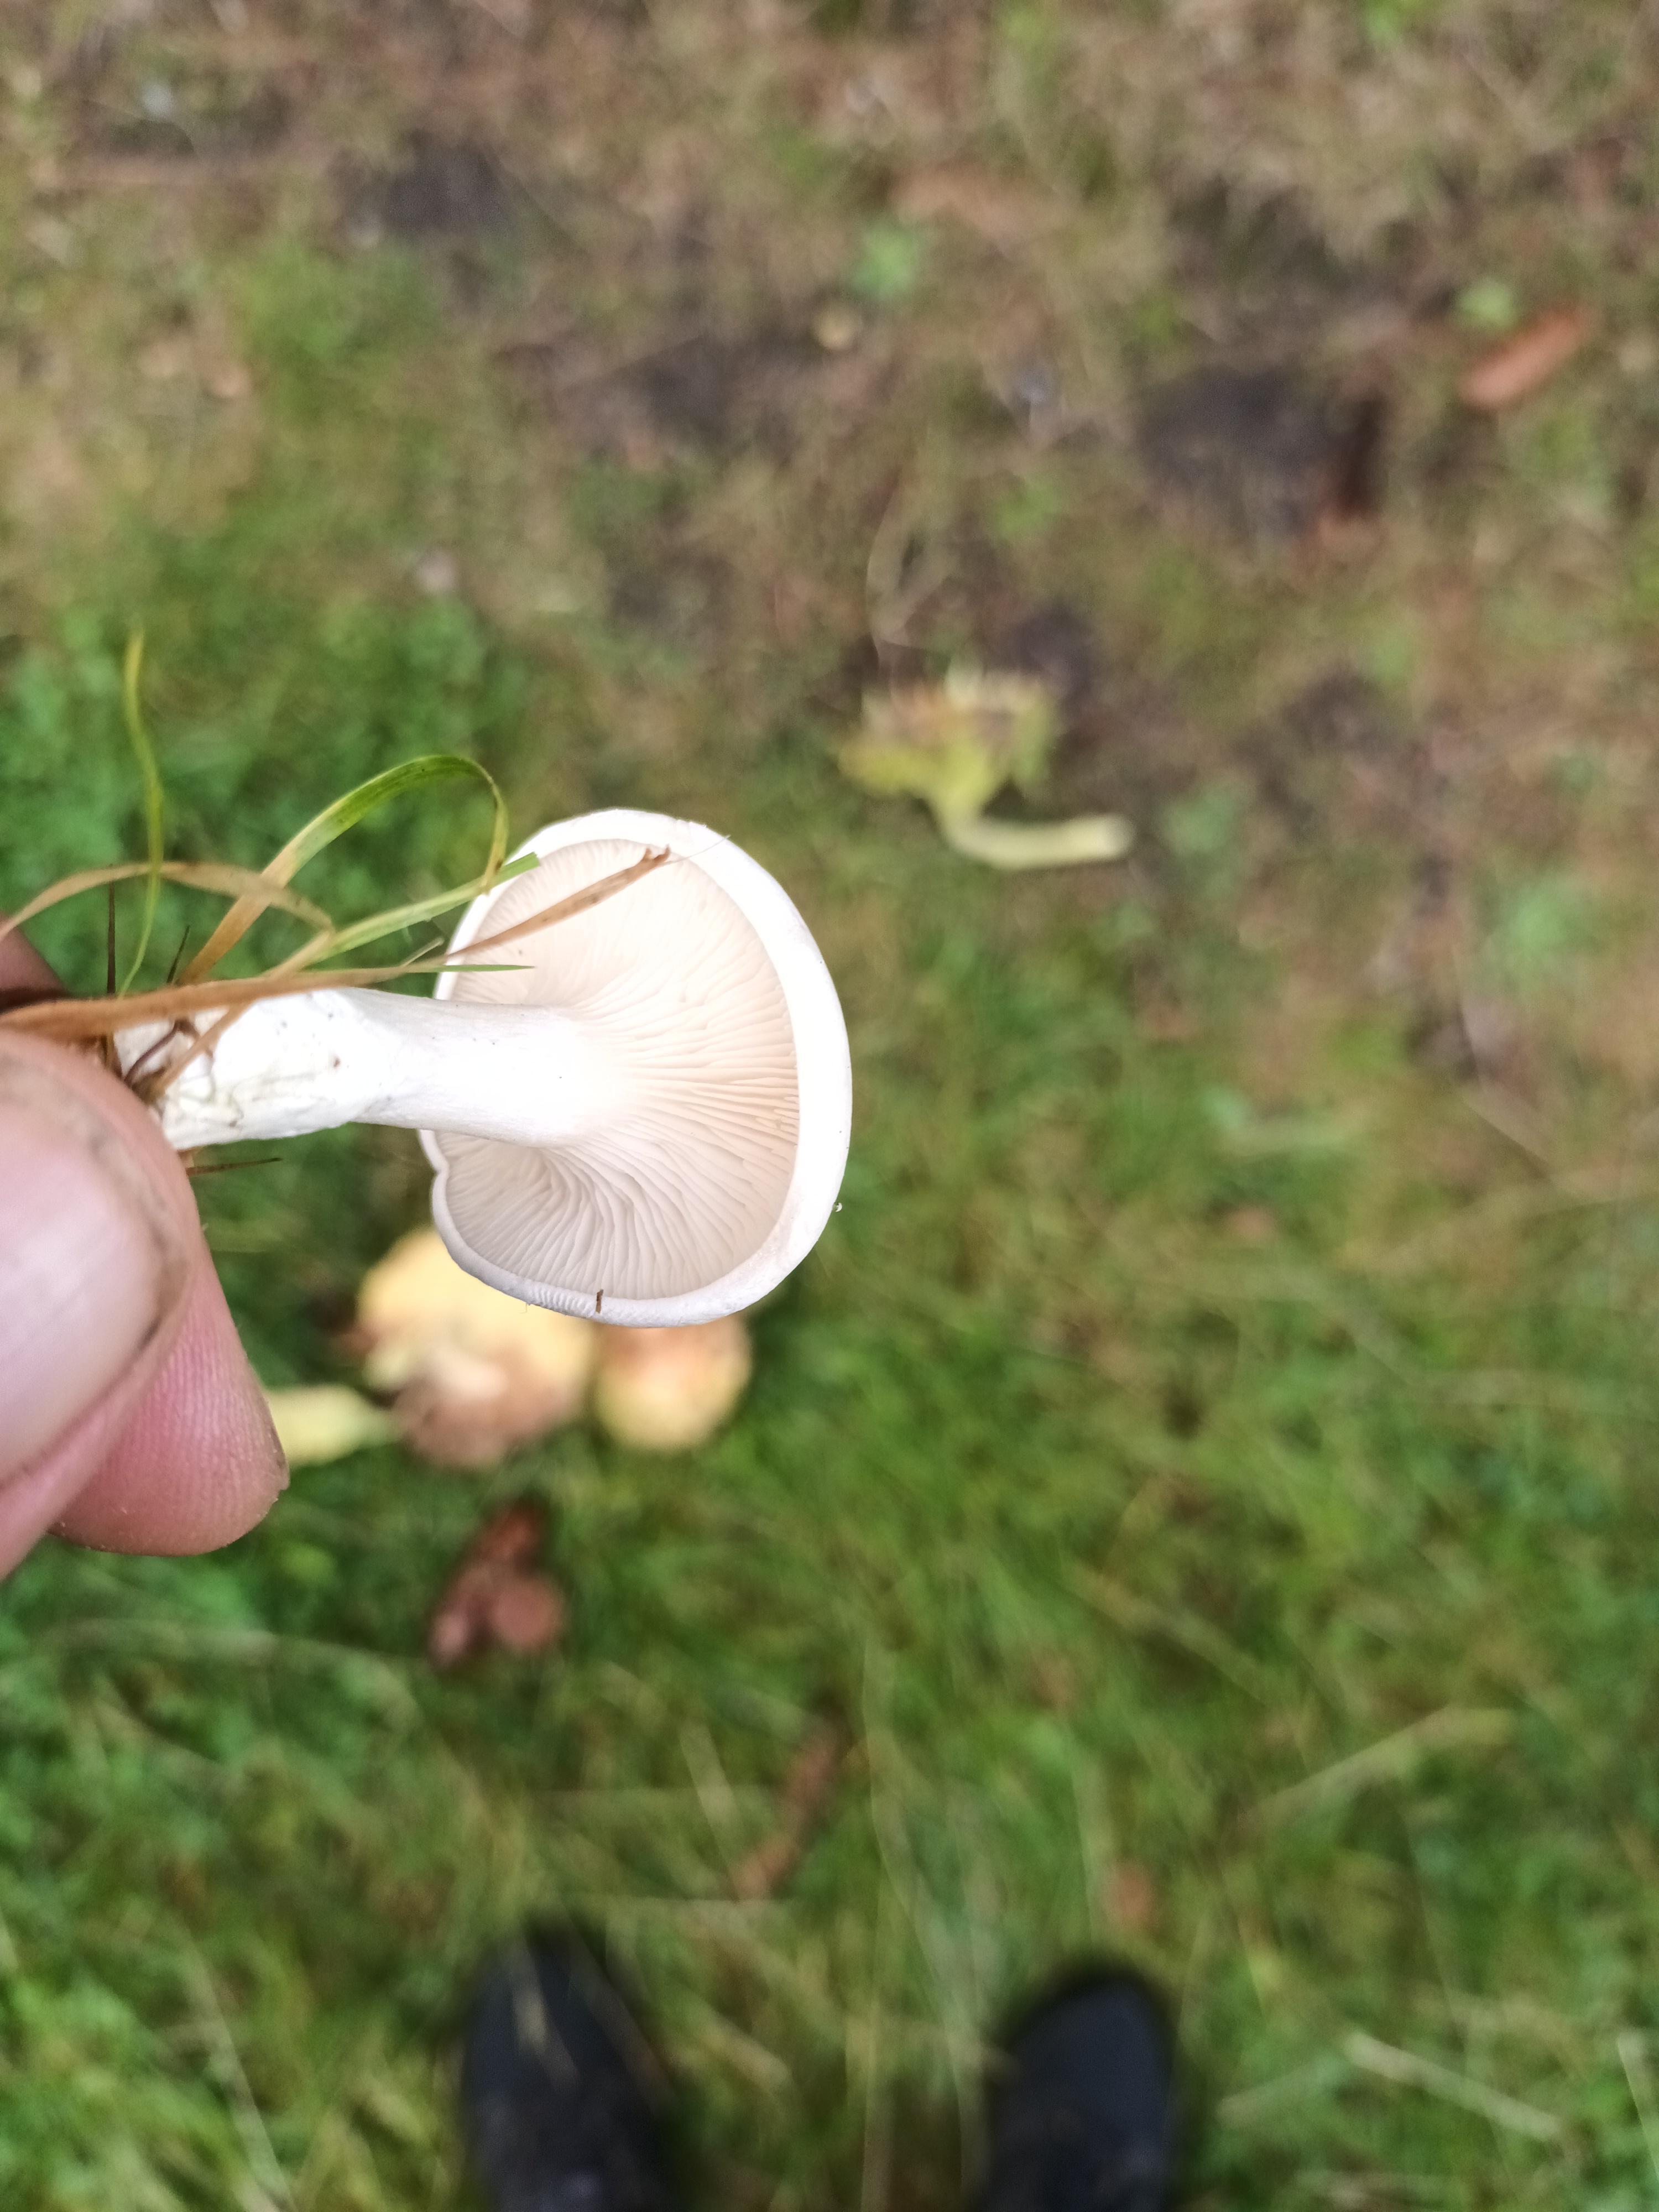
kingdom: Fungi
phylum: Basidiomycota
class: Agaricomycetes
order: Agaricales
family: Entolomataceae
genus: Clitopilus
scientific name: Clitopilus prunulus
